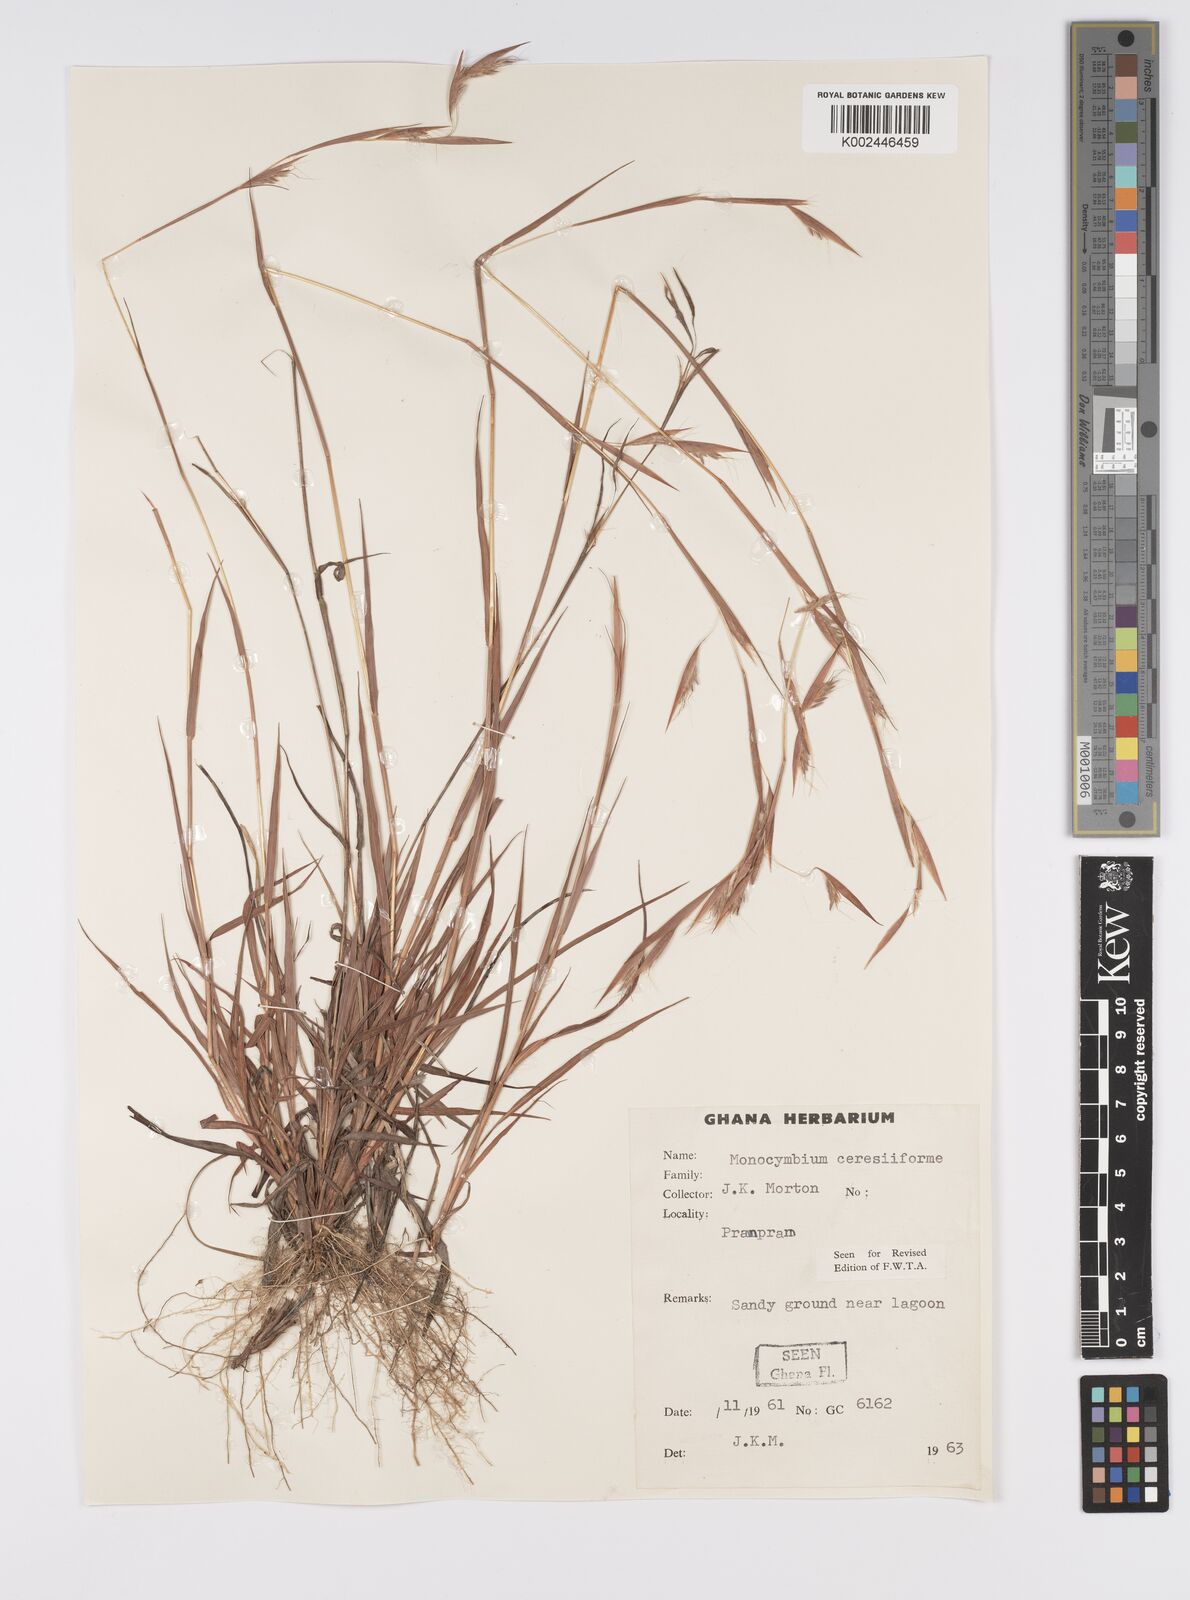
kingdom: Plantae
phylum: Tracheophyta
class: Liliopsida
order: Poales
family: Poaceae
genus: Monocymbium
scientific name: Monocymbium ceresiiforme
